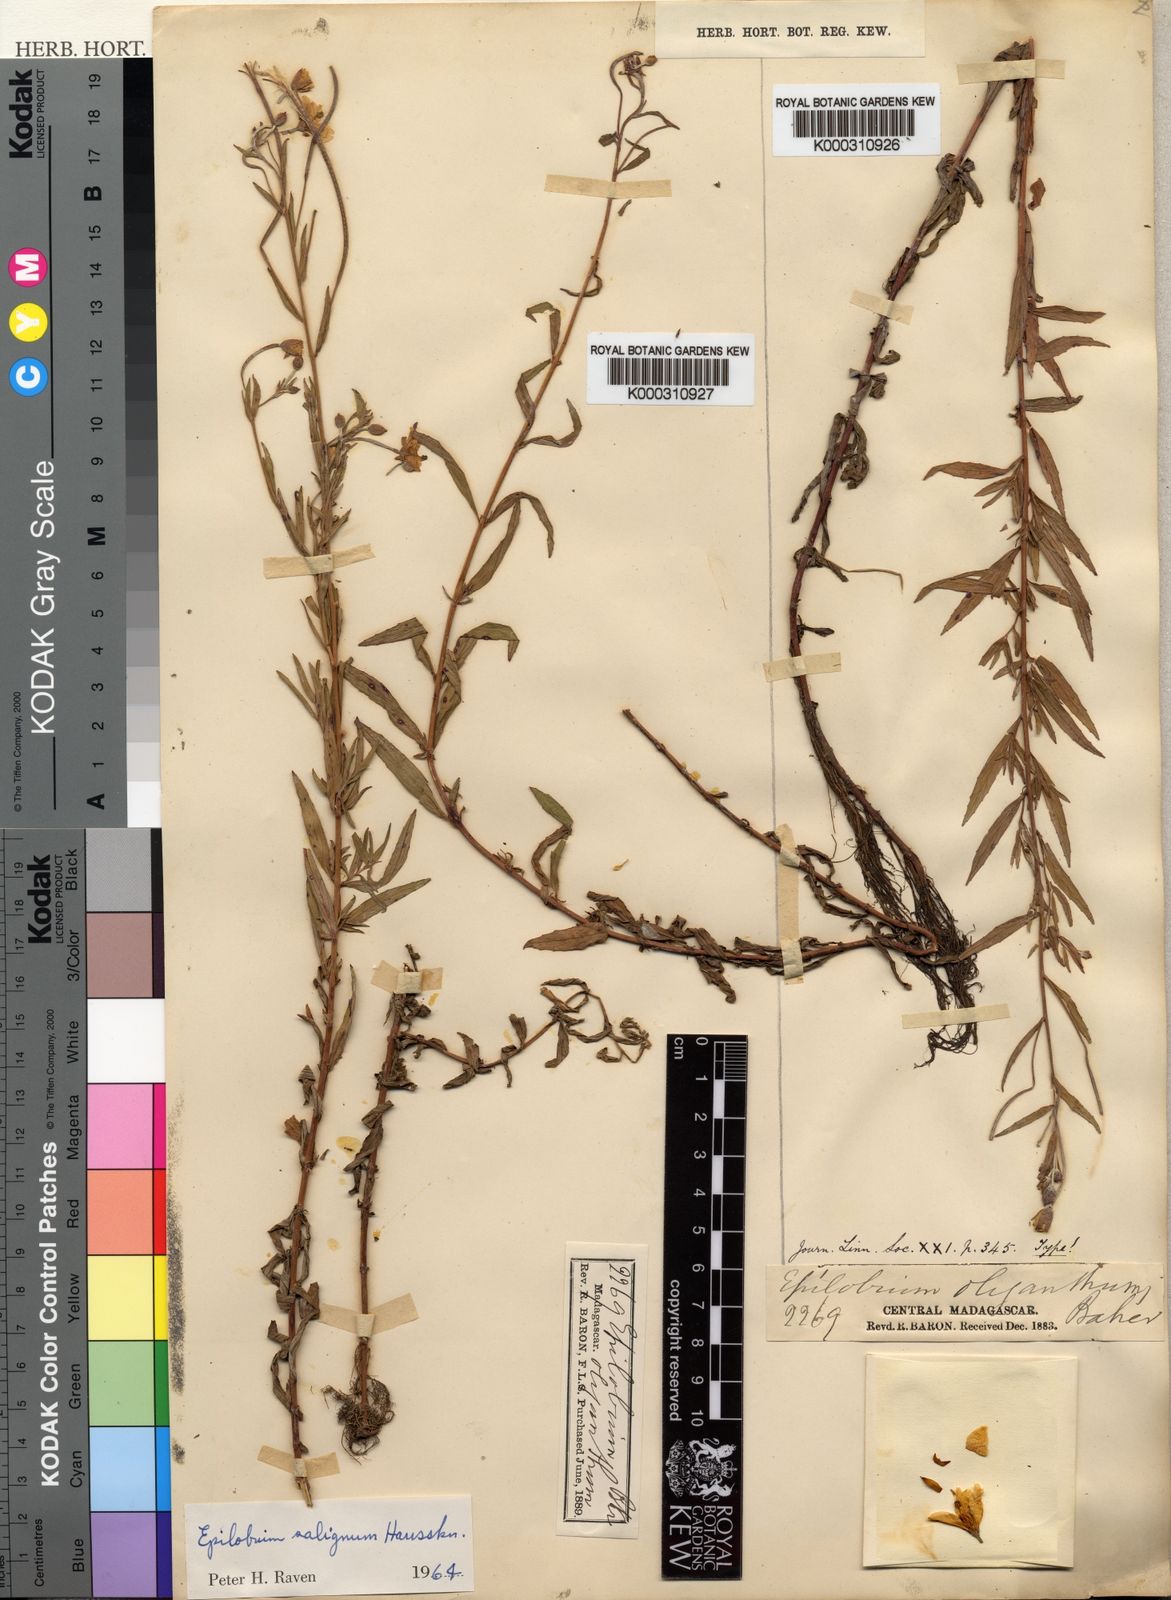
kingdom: Plantae
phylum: Tracheophyta
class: Magnoliopsida
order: Myrtales
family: Onagraceae
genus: Epilobium
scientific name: Epilobium salignum
